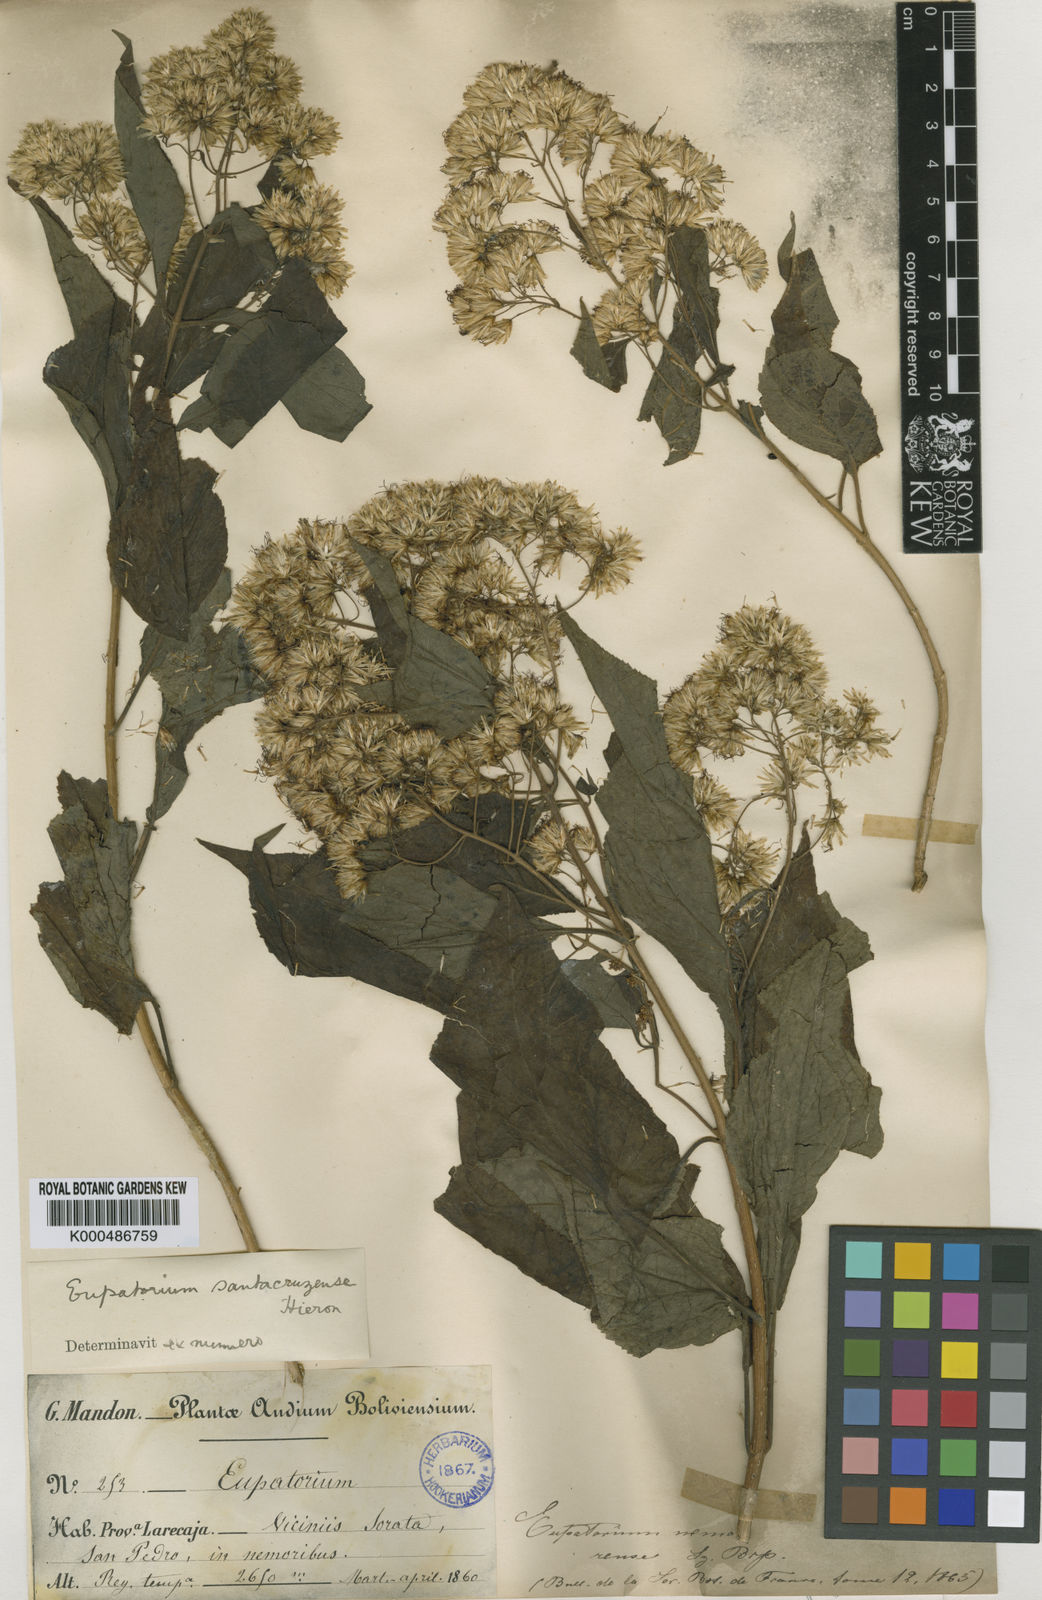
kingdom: Plantae
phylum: Tracheophyta
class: Magnoliopsida
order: Asterales
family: Asteraceae
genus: Lorentzianthus
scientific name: Lorentzianthus viscidus
